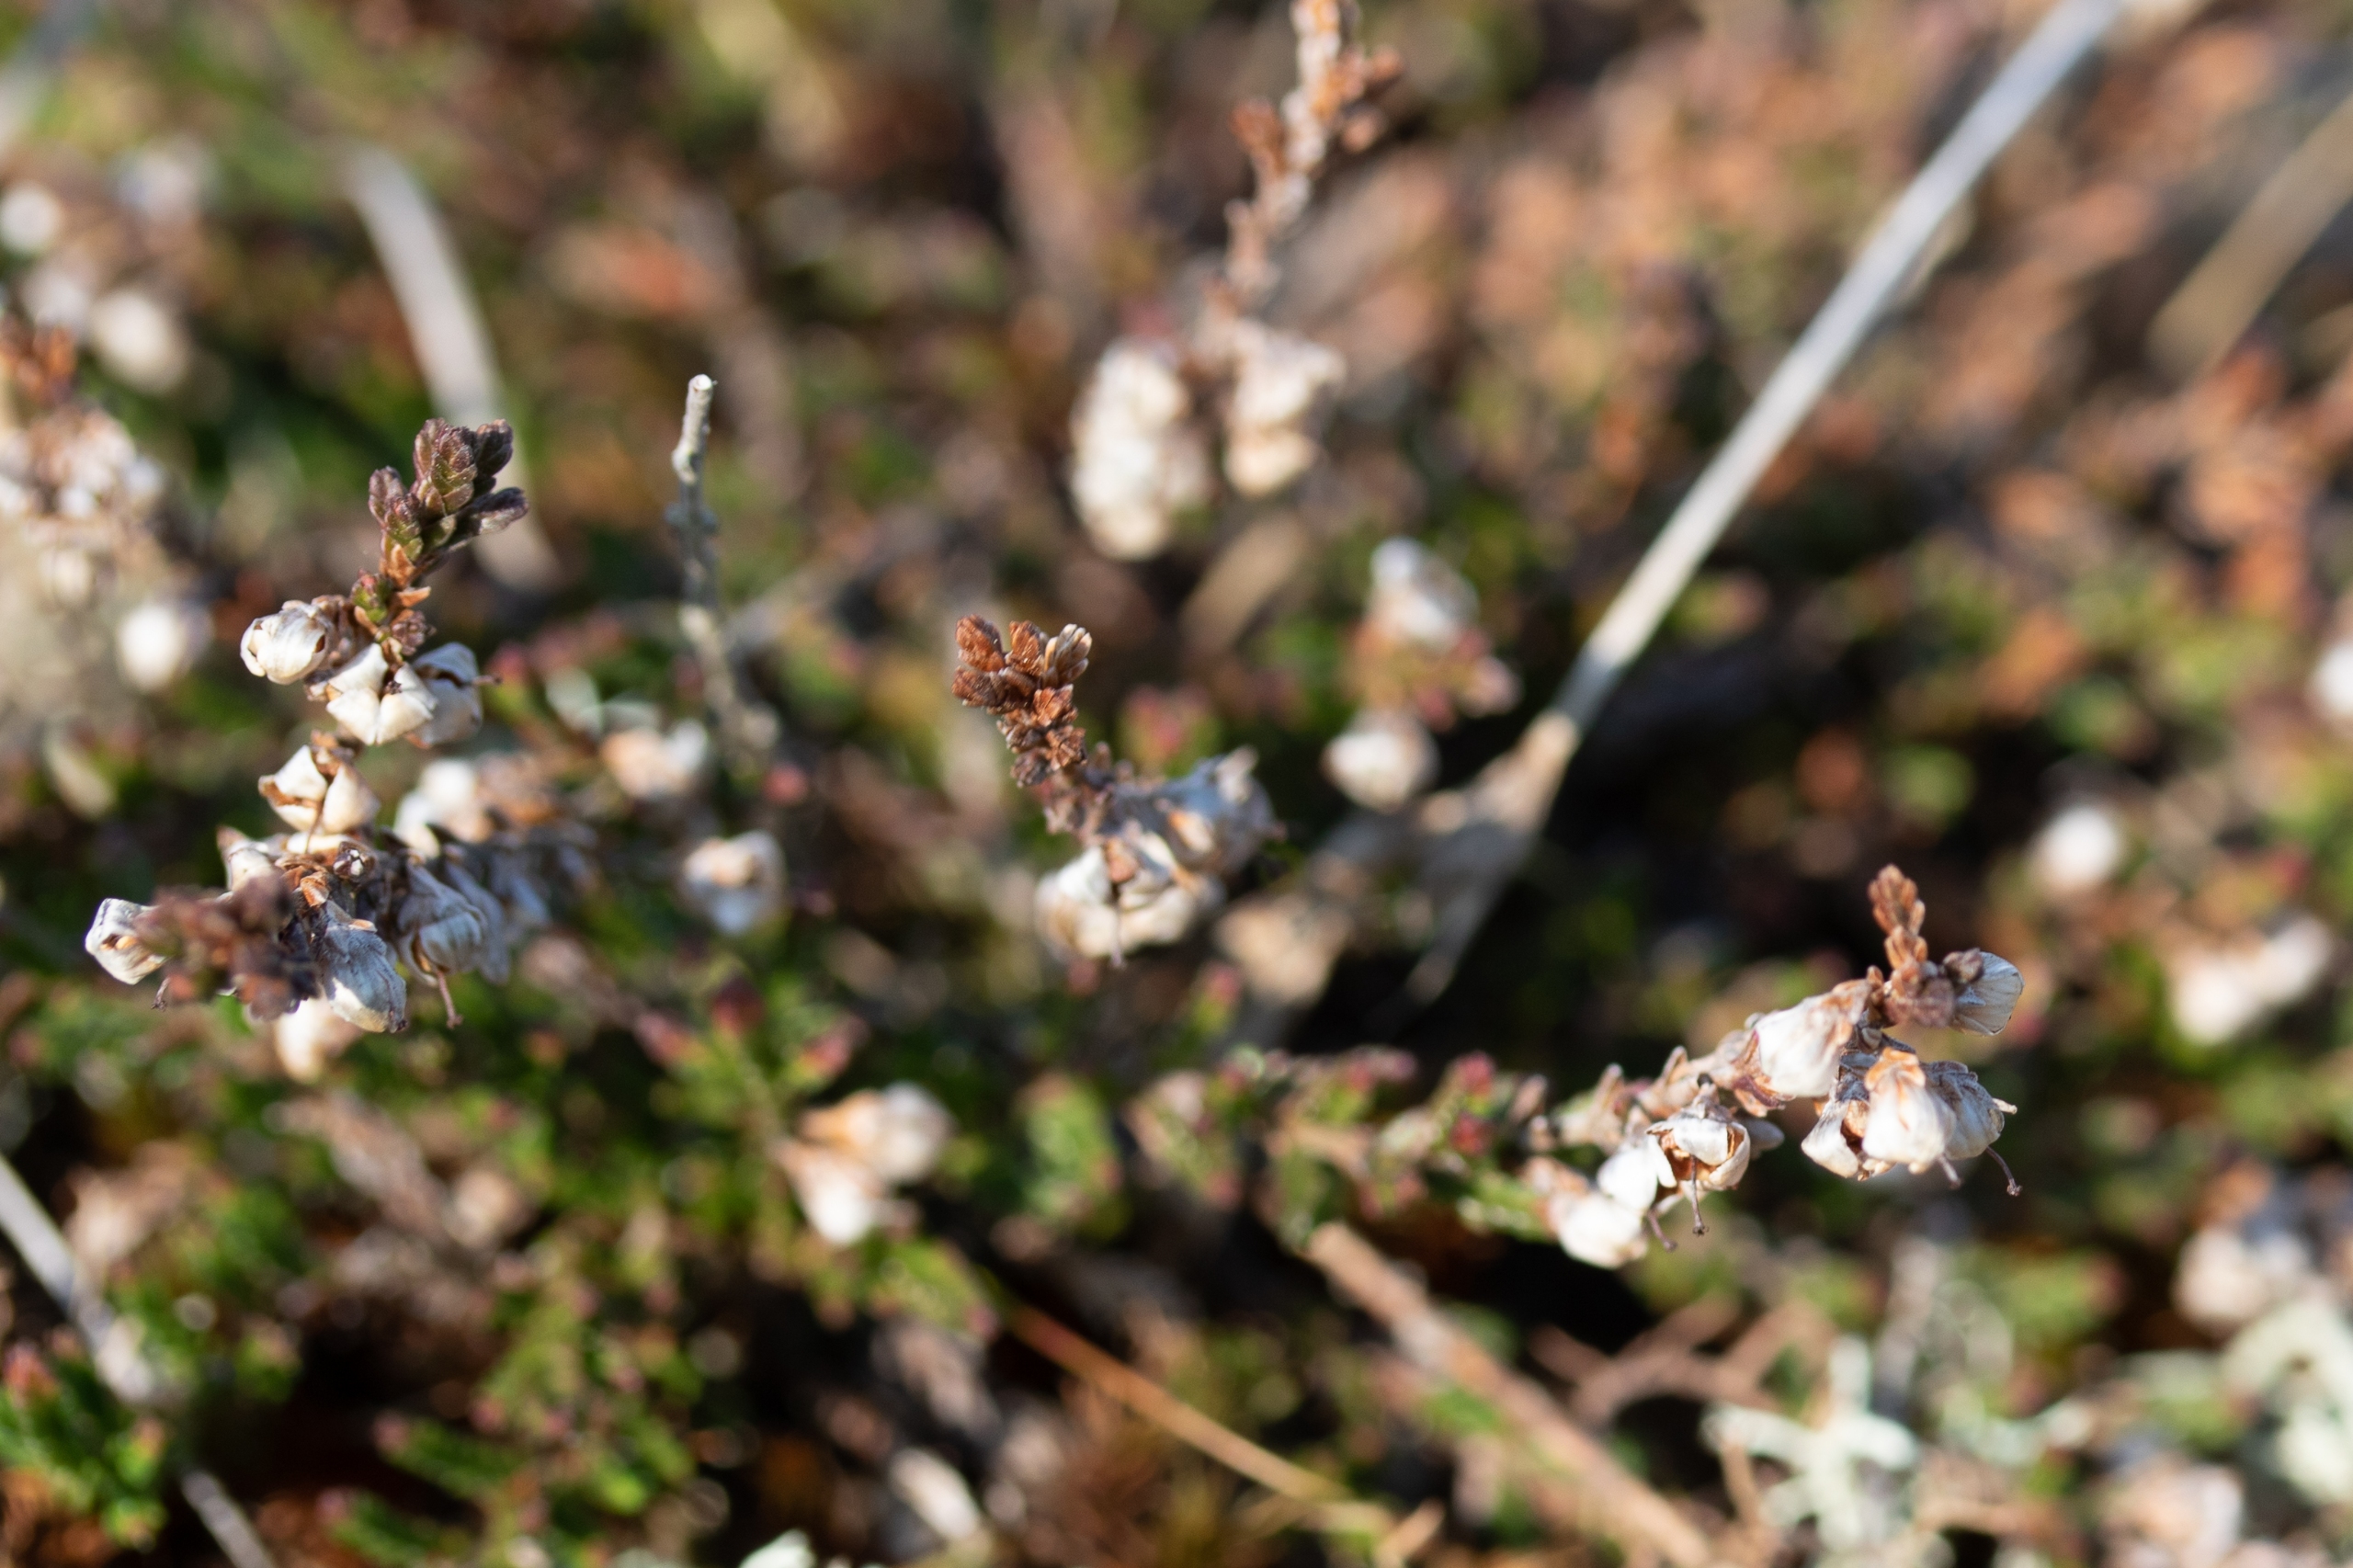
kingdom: Plantae
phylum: Tracheophyta
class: Magnoliopsida
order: Ericales
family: Ericaceae
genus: Calluna
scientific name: Calluna vulgaris
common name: Hedelyng
